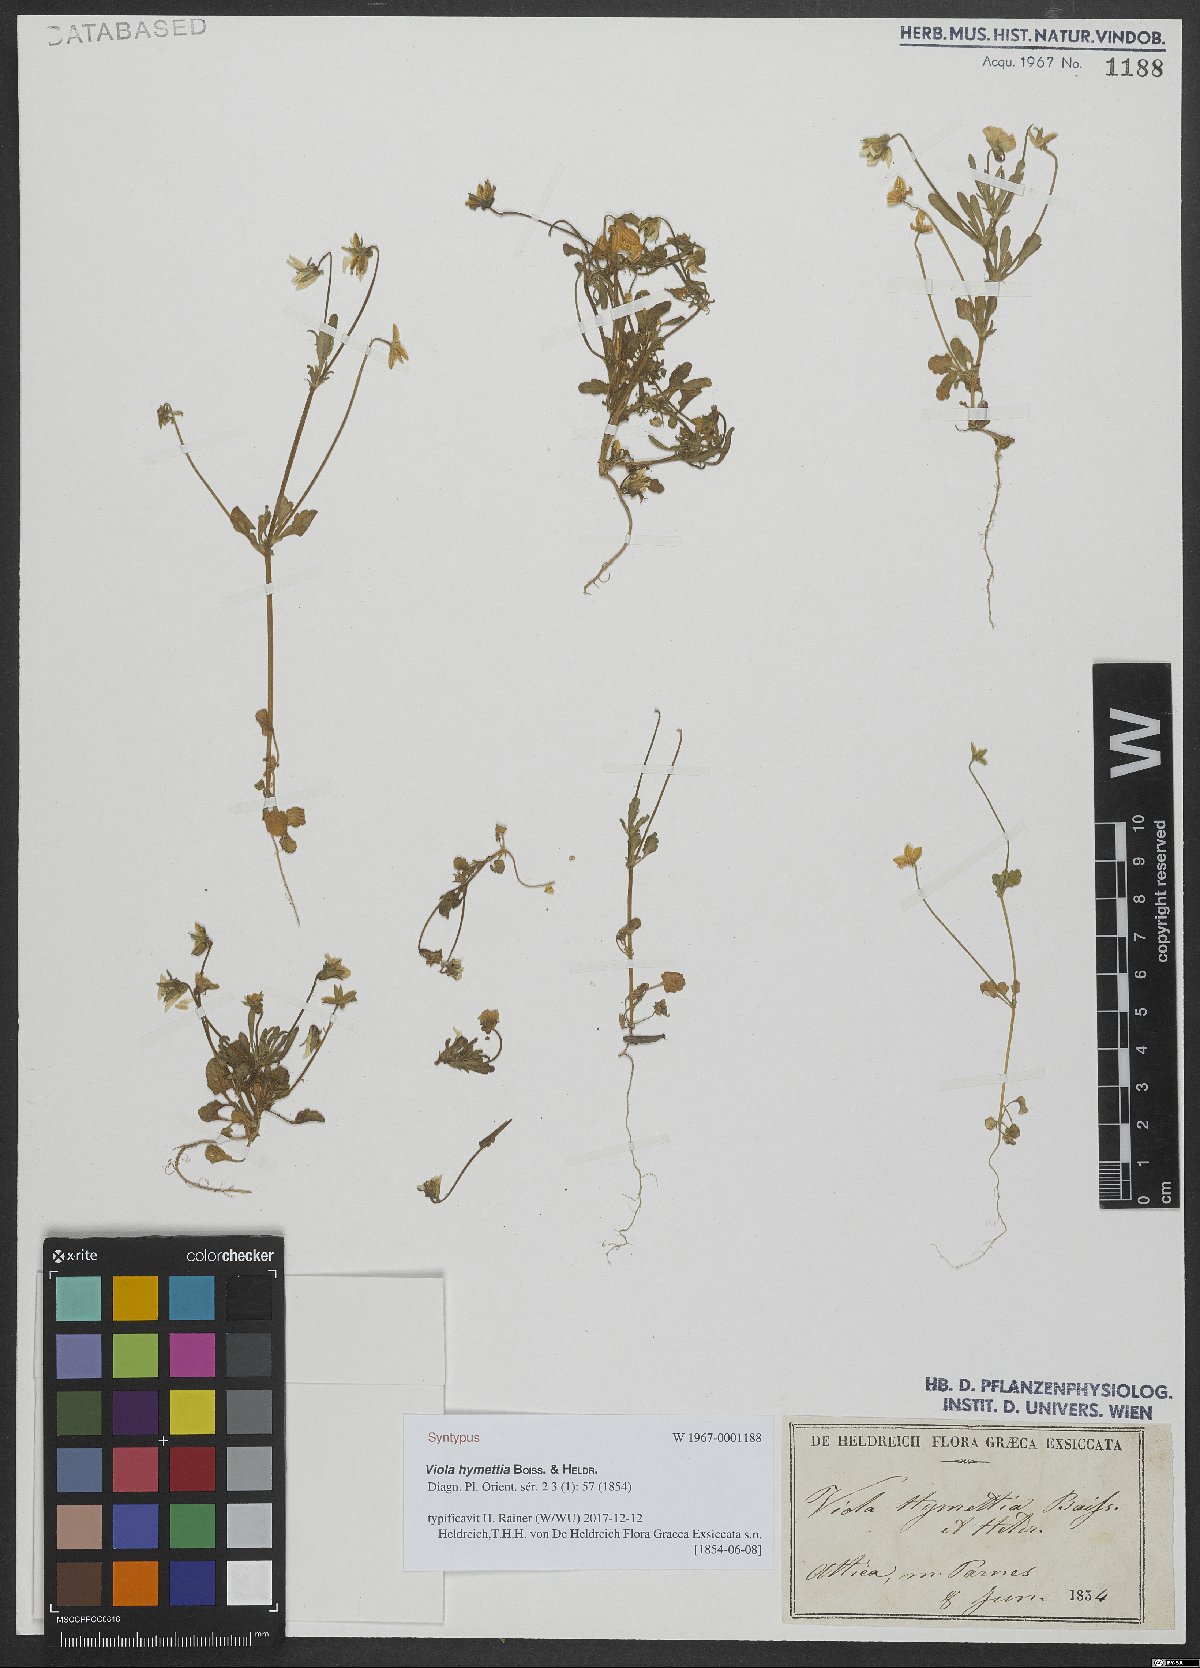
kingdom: Plantae
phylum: Tracheophyta
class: Magnoliopsida
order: Malpighiales
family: Violaceae
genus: Viola
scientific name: Viola hymettia
